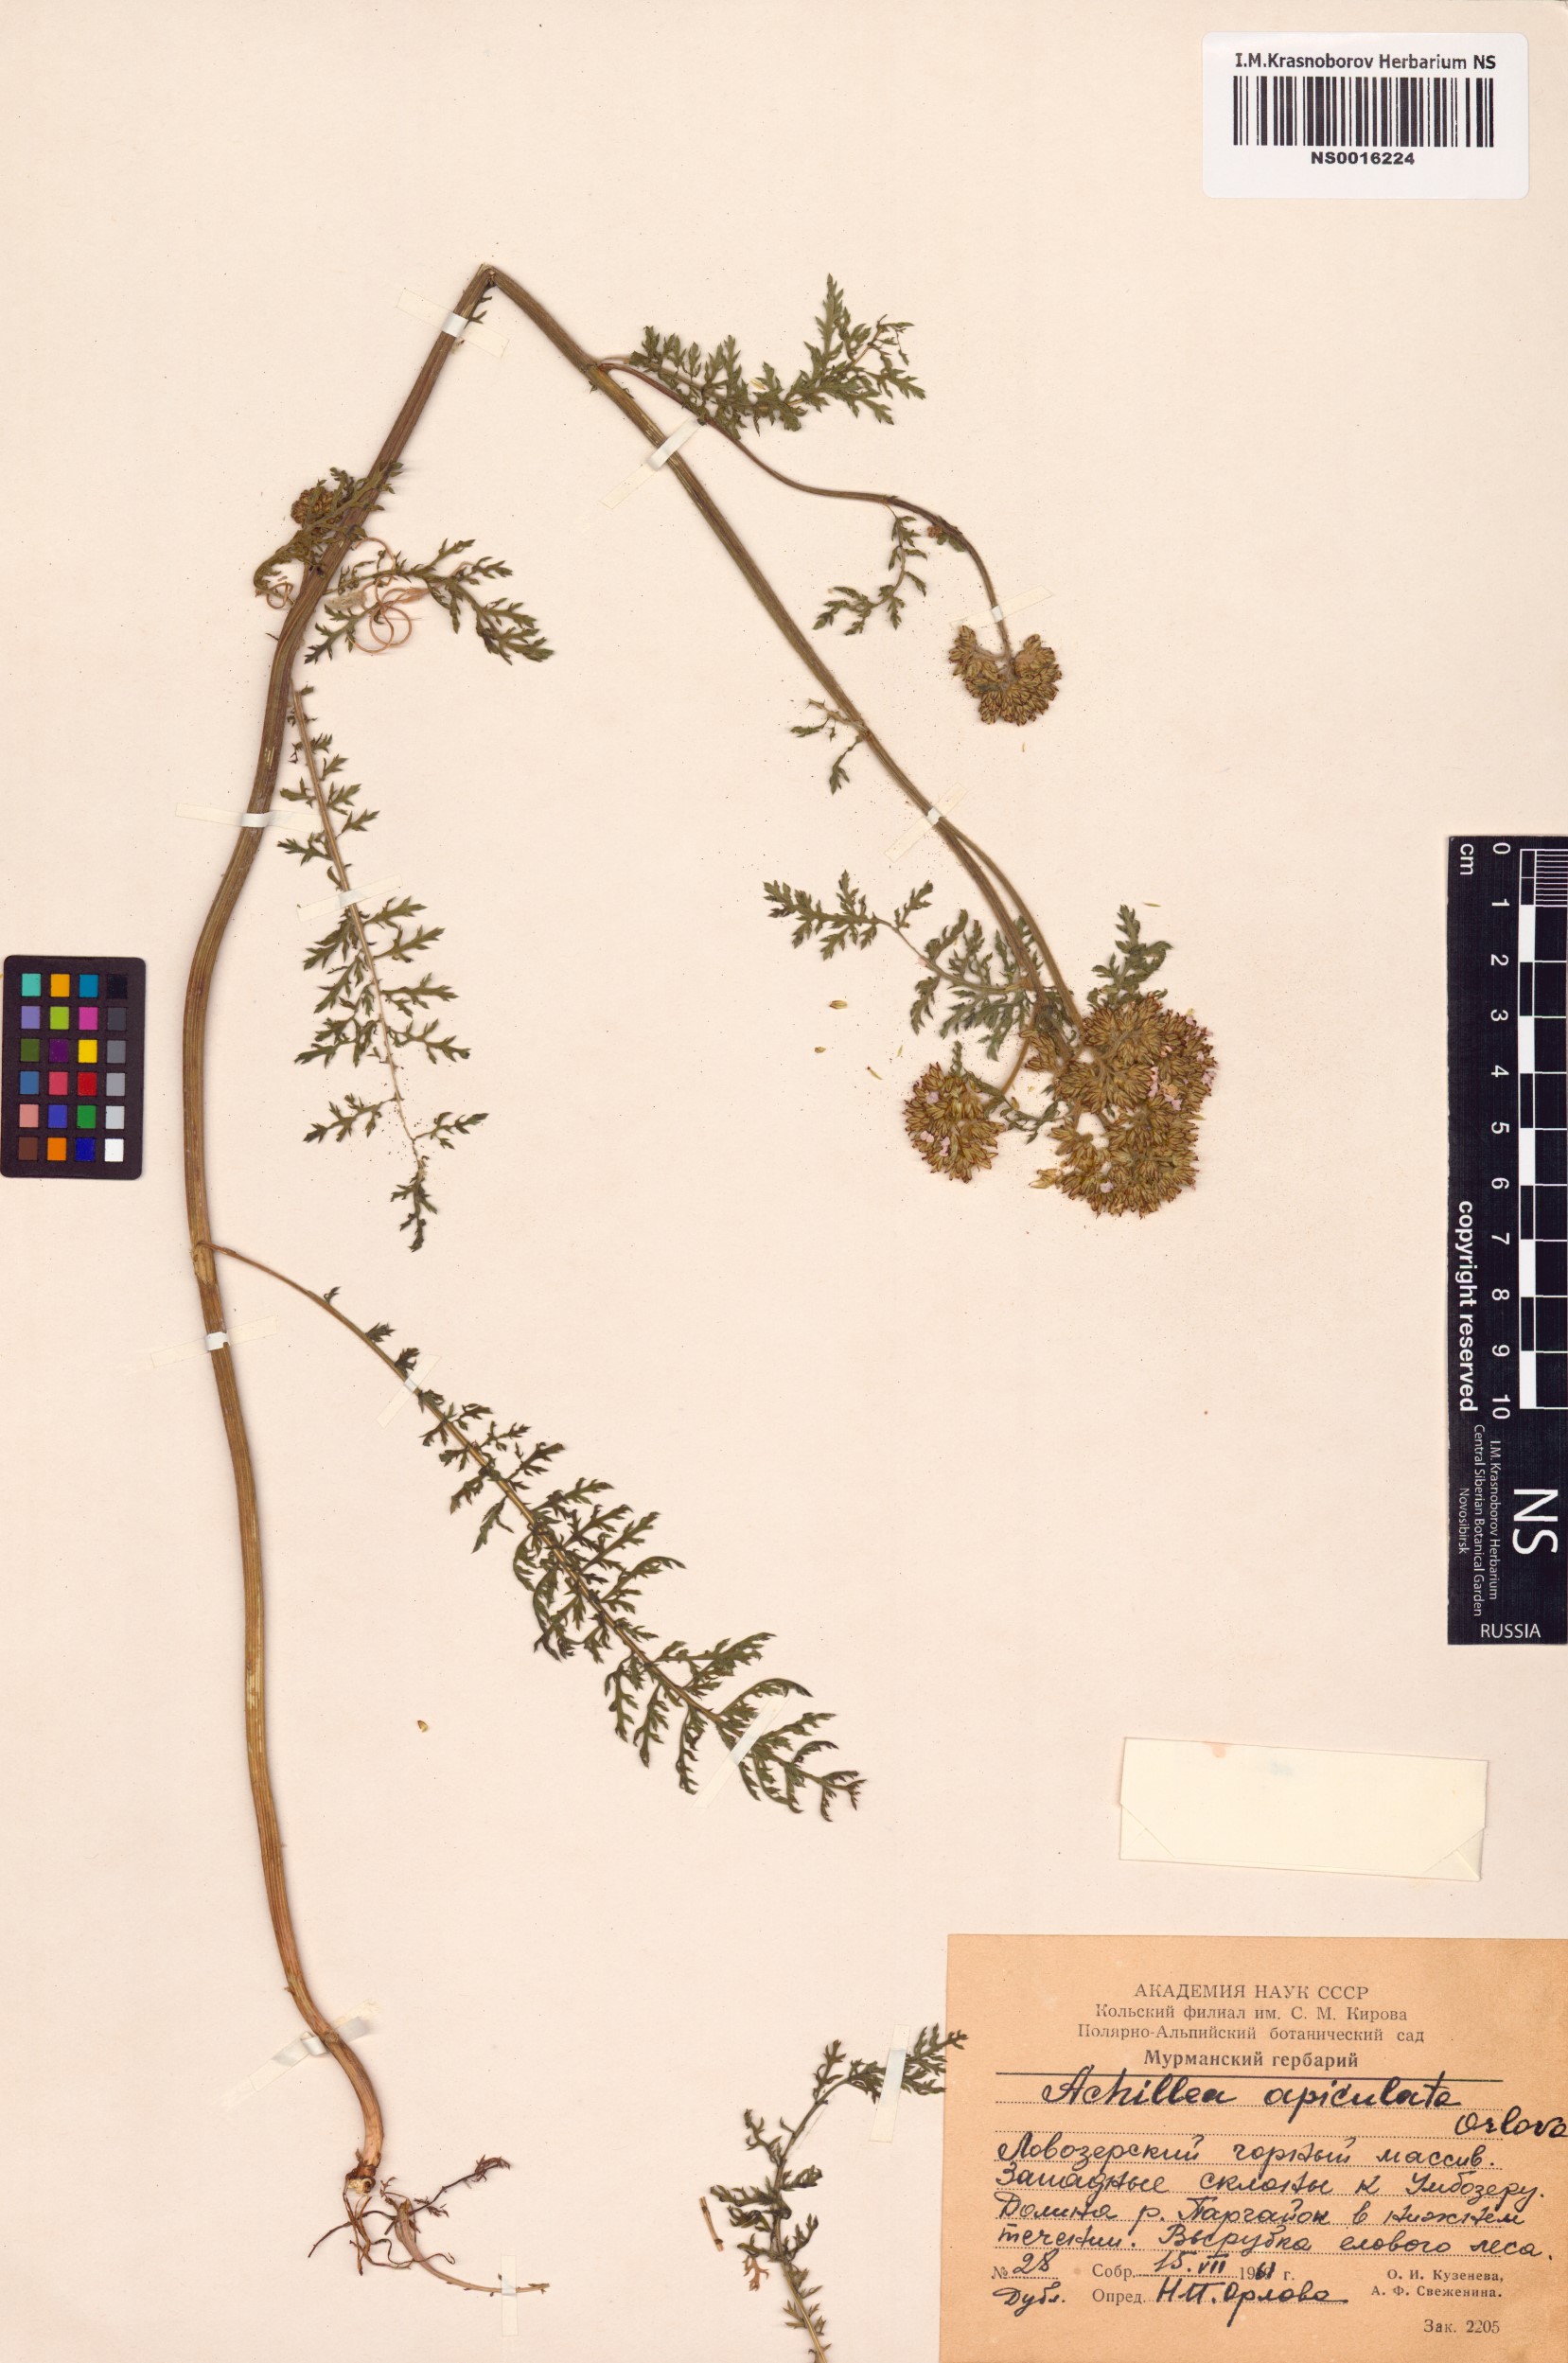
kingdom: Plantae
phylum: Tracheophyta
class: Magnoliopsida
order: Asterales
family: Asteraceae
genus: Achillea
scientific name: Achillea apiculata
